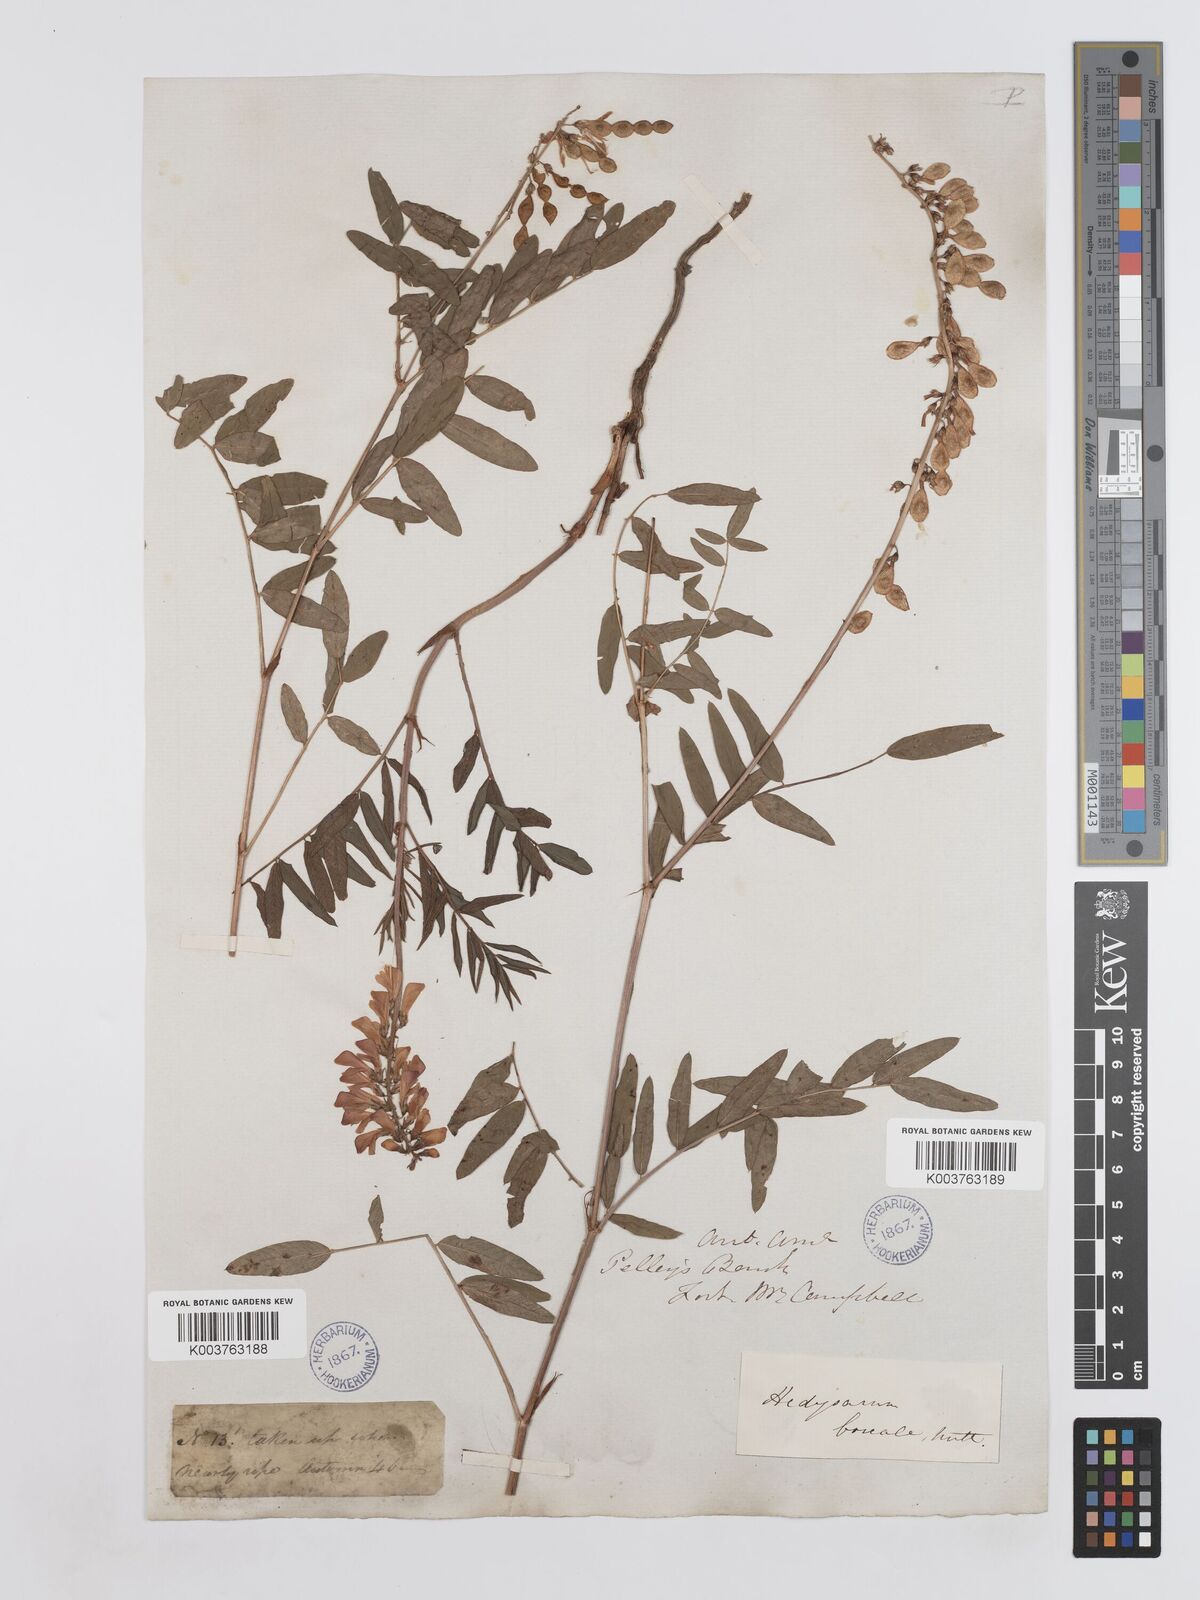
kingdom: Plantae
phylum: Tracheophyta
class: Magnoliopsida
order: Fabales
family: Fabaceae
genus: Hedysarum
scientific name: Hedysarum boreale
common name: Northern sweet-vetch
